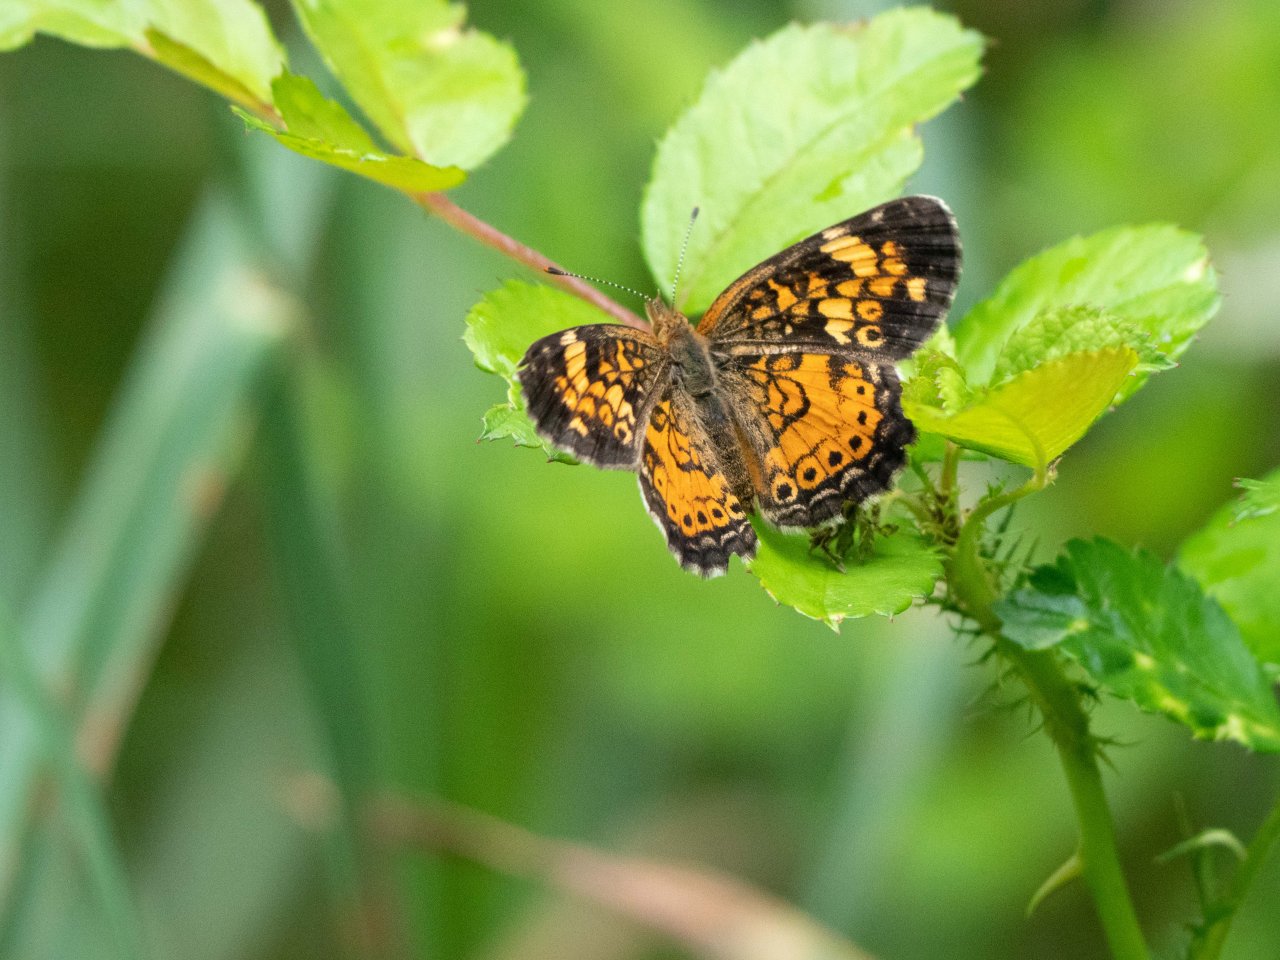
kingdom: Animalia
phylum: Arthropoda
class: Insecta
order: Lepidoptera
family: Nymphalidae
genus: Phyciodes
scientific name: Phyciodes
